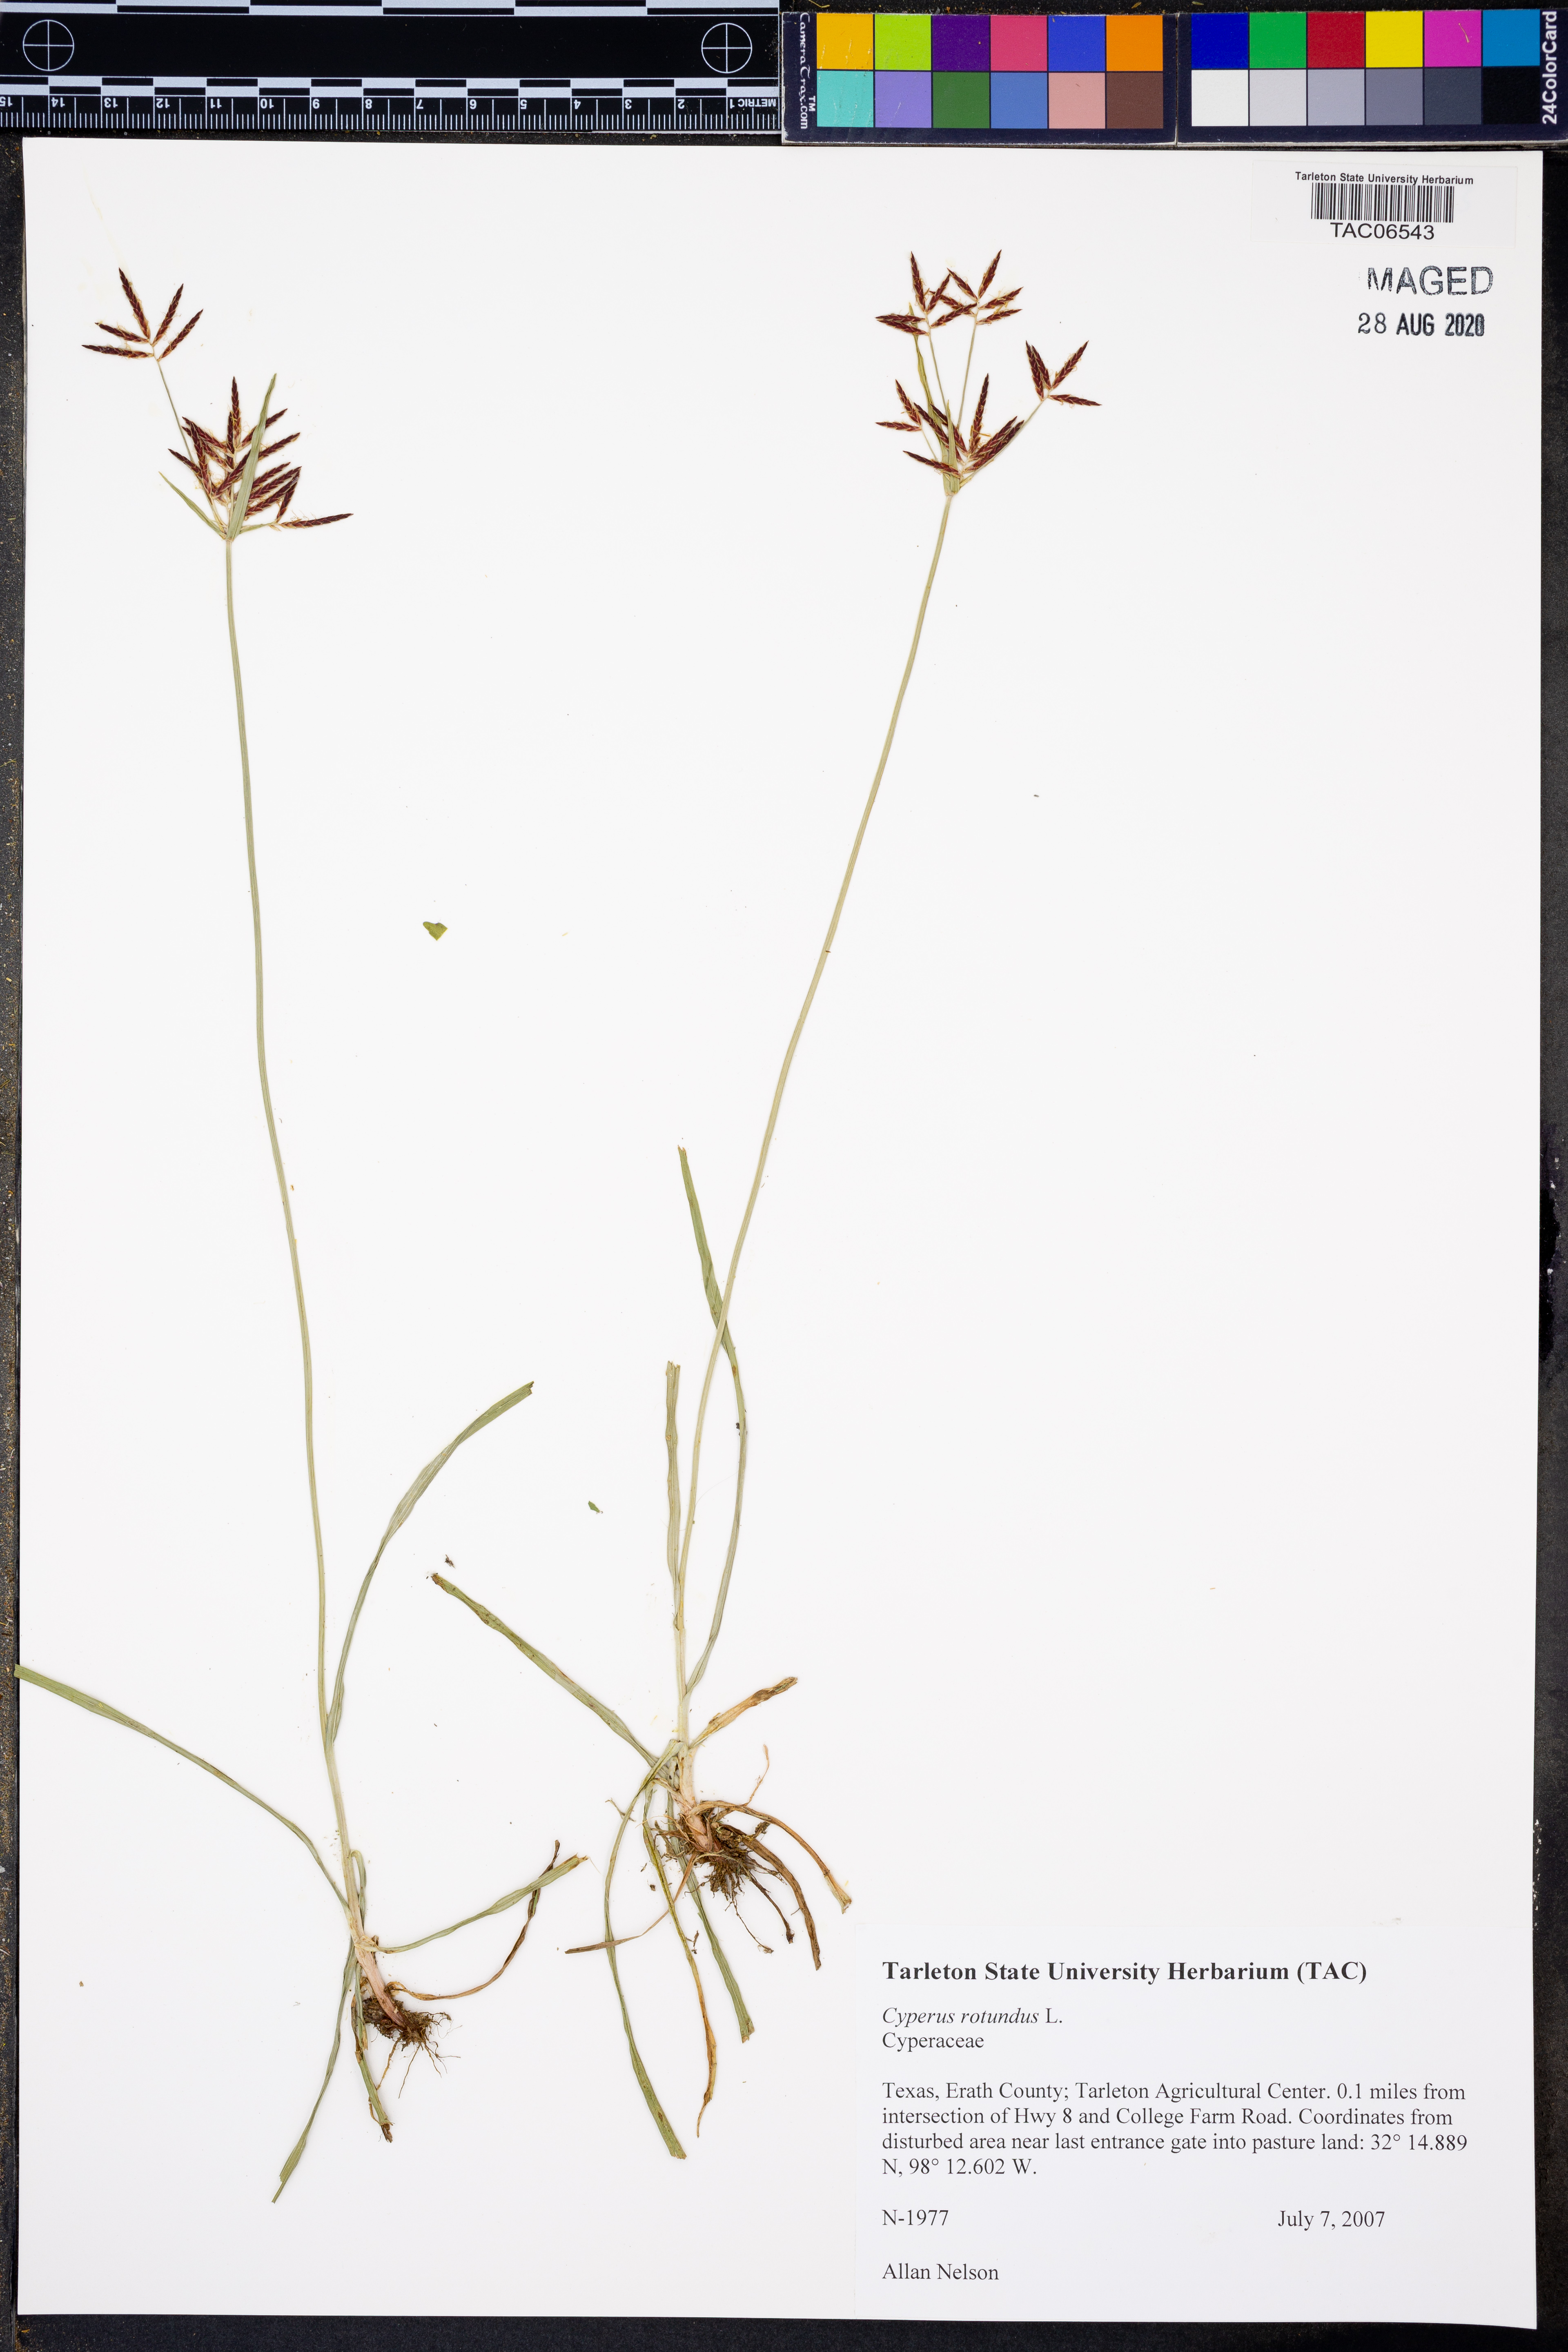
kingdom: Plantae
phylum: Tracheophyta
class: Liliopsida
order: Poales
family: Cyperaceae
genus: Cyperus
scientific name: Cyperus rotundus
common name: Nutgrass
